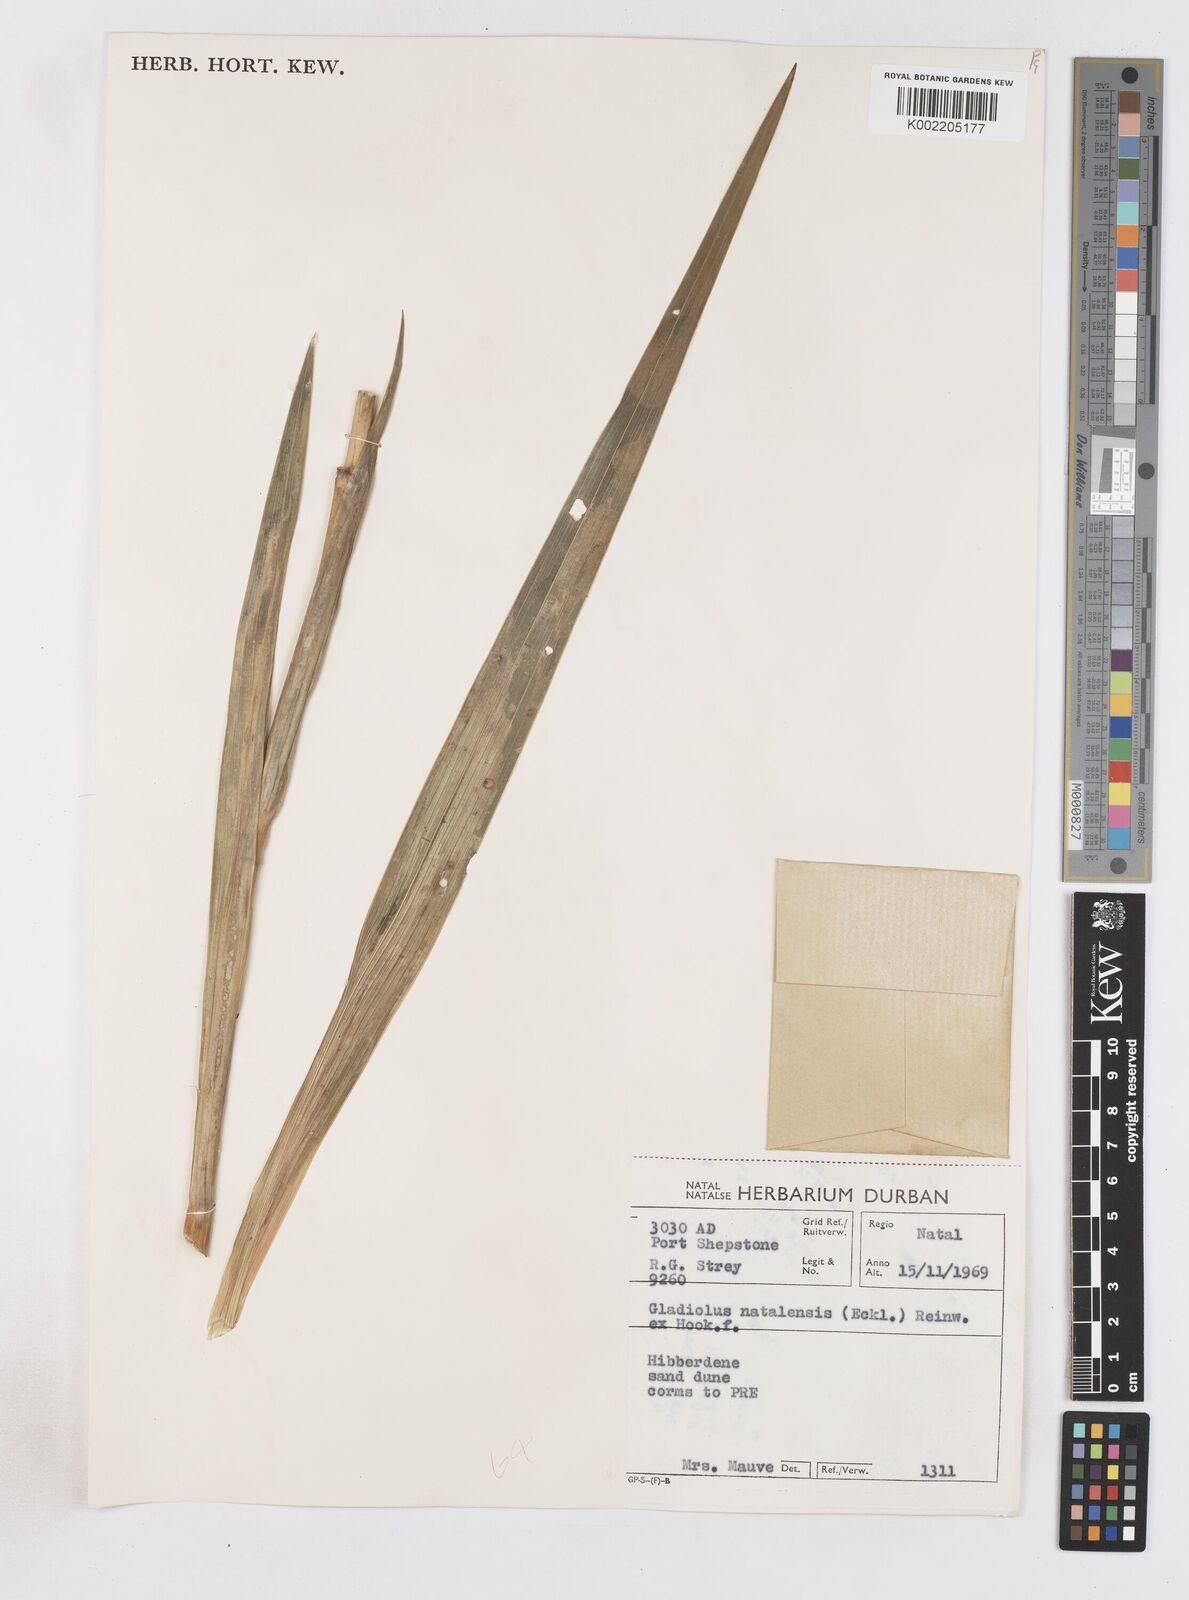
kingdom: Plantae
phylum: Tracheophyta
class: Liliopsida
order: Asparagales
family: Iridaceae
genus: Gladiolus
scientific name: Gladiolus dalenii
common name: Cornflag
